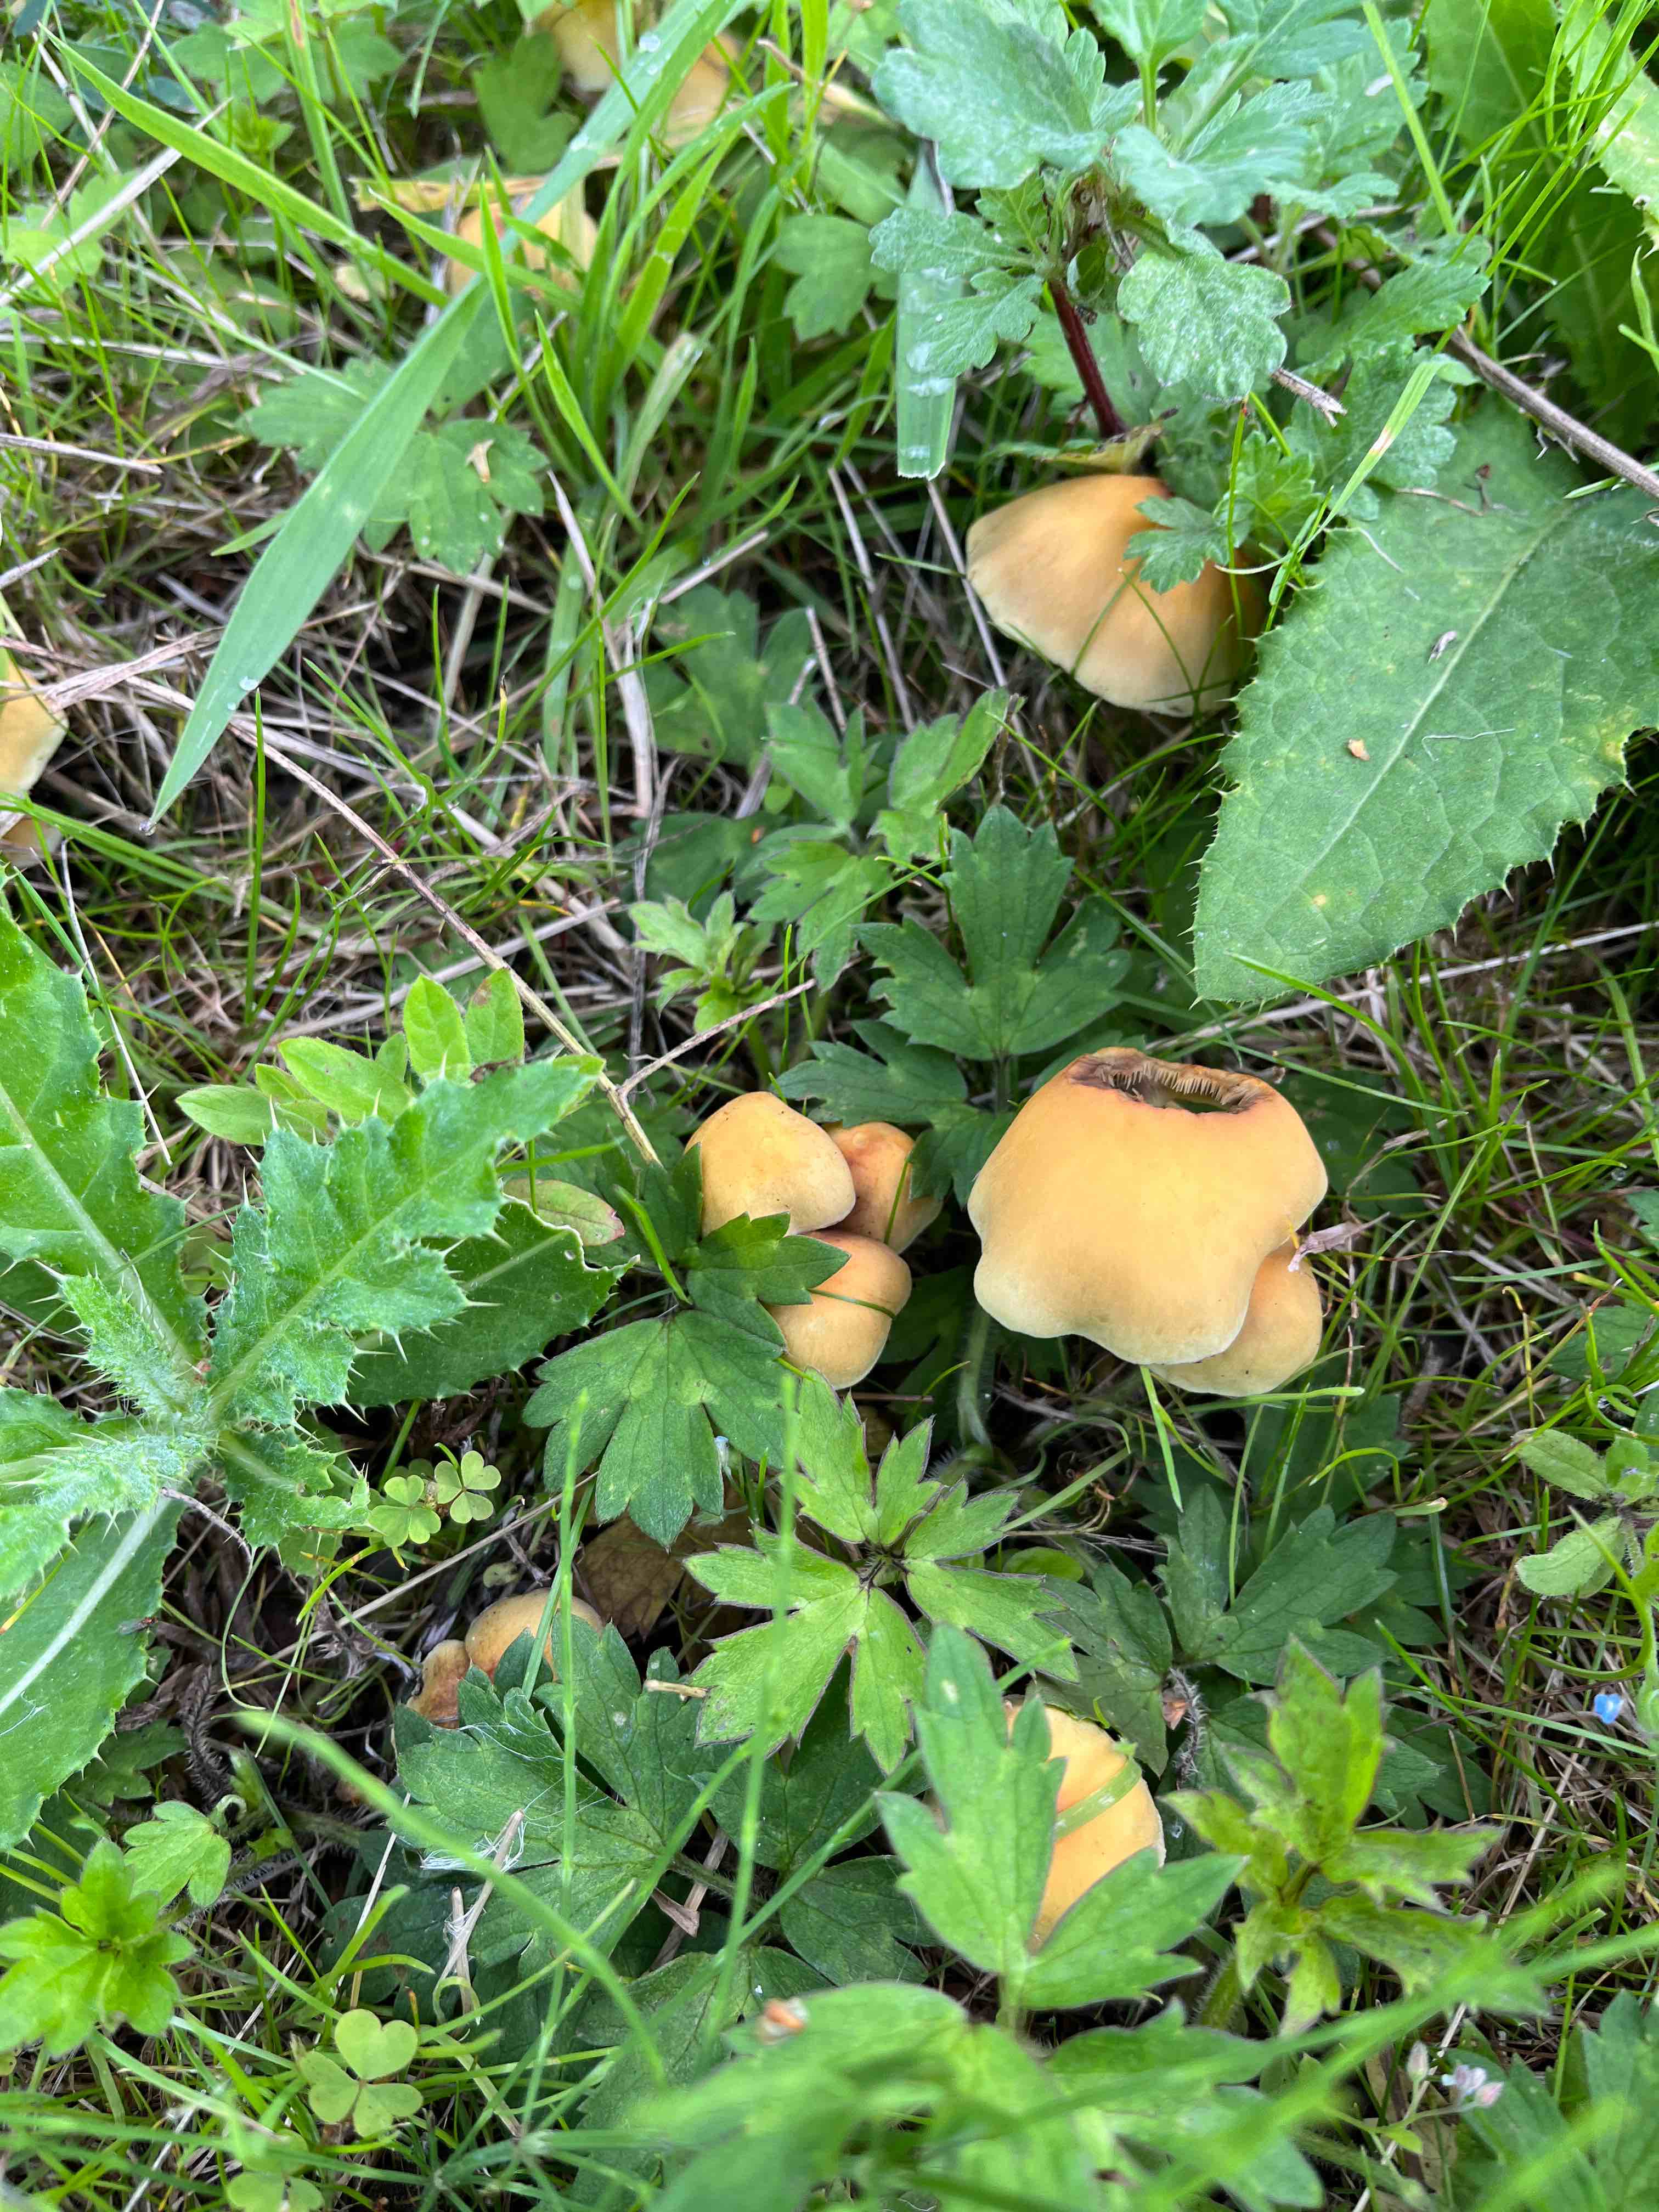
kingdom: Fungi
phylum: Basidiomycota
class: Agaricomycetes
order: Agaricales
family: Strophariaceae
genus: Hypholoma
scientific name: Hypholoma fasciculare
